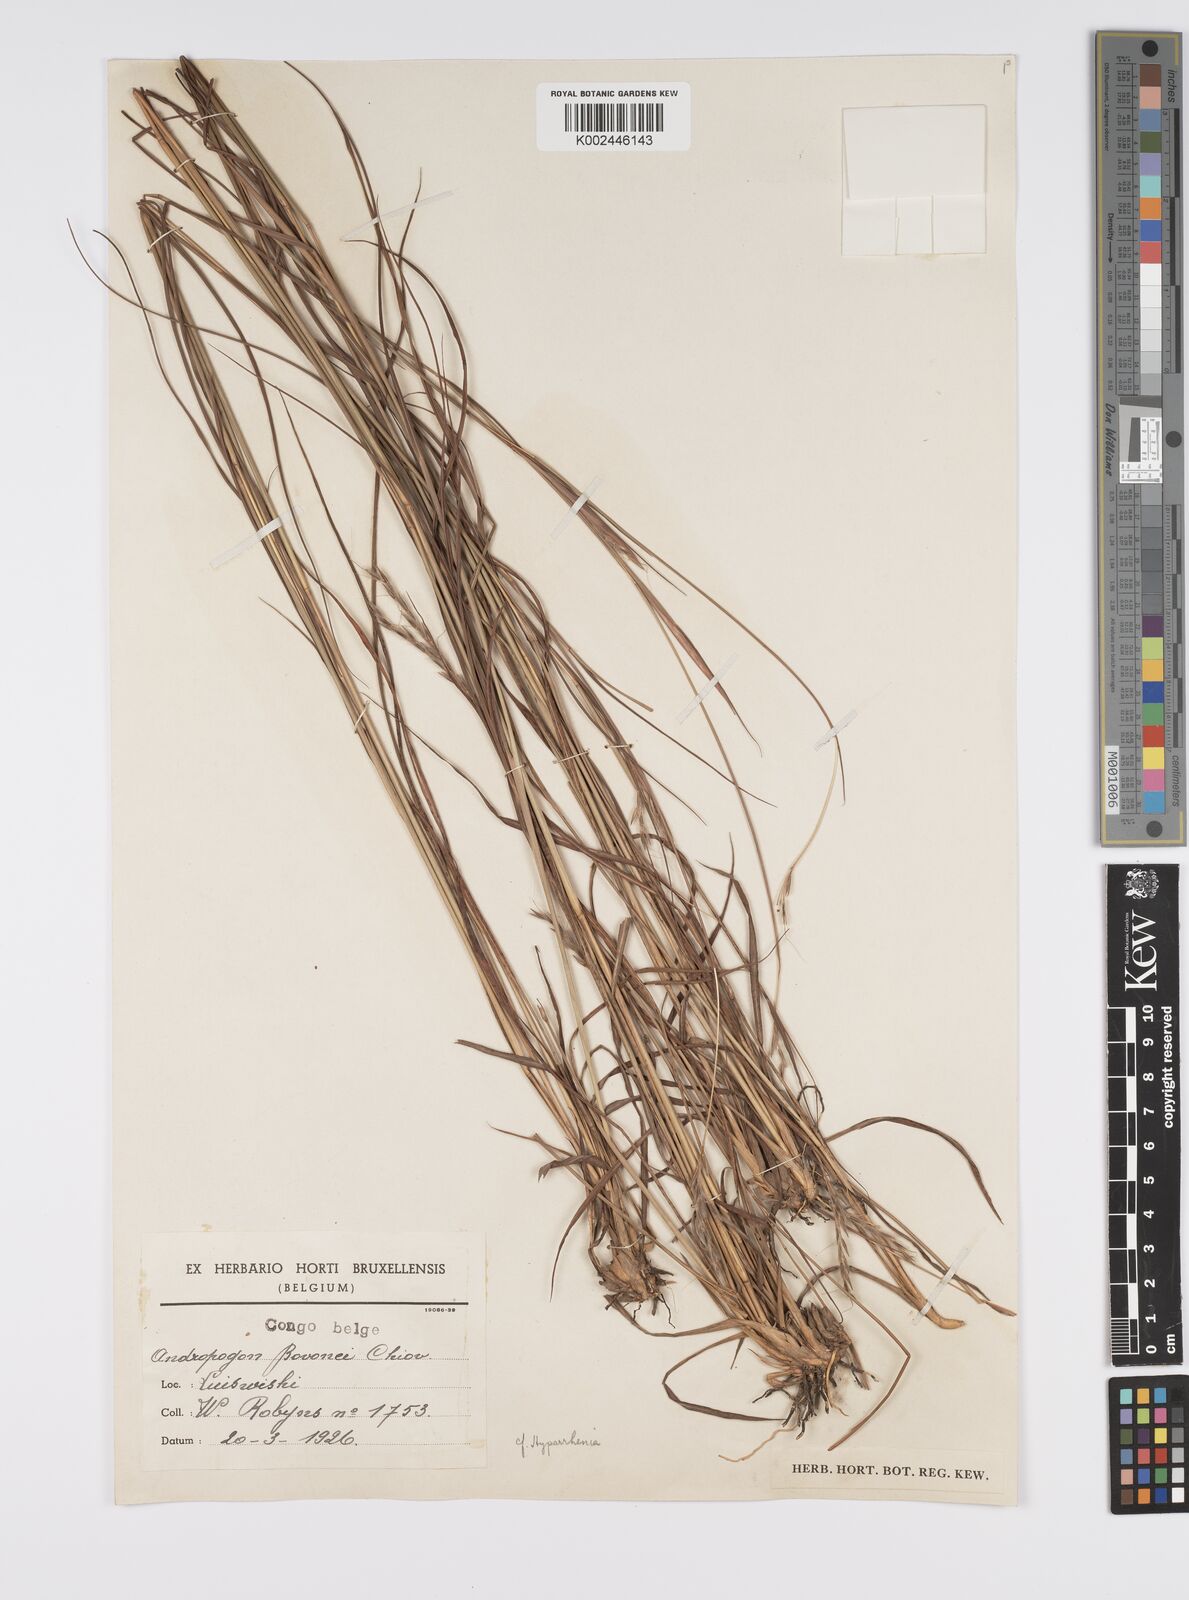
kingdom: Plantae
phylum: Tracheophyta
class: Liliopsida
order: Poales
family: Poaceae
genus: Elymandra
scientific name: Elymandra lithophila
